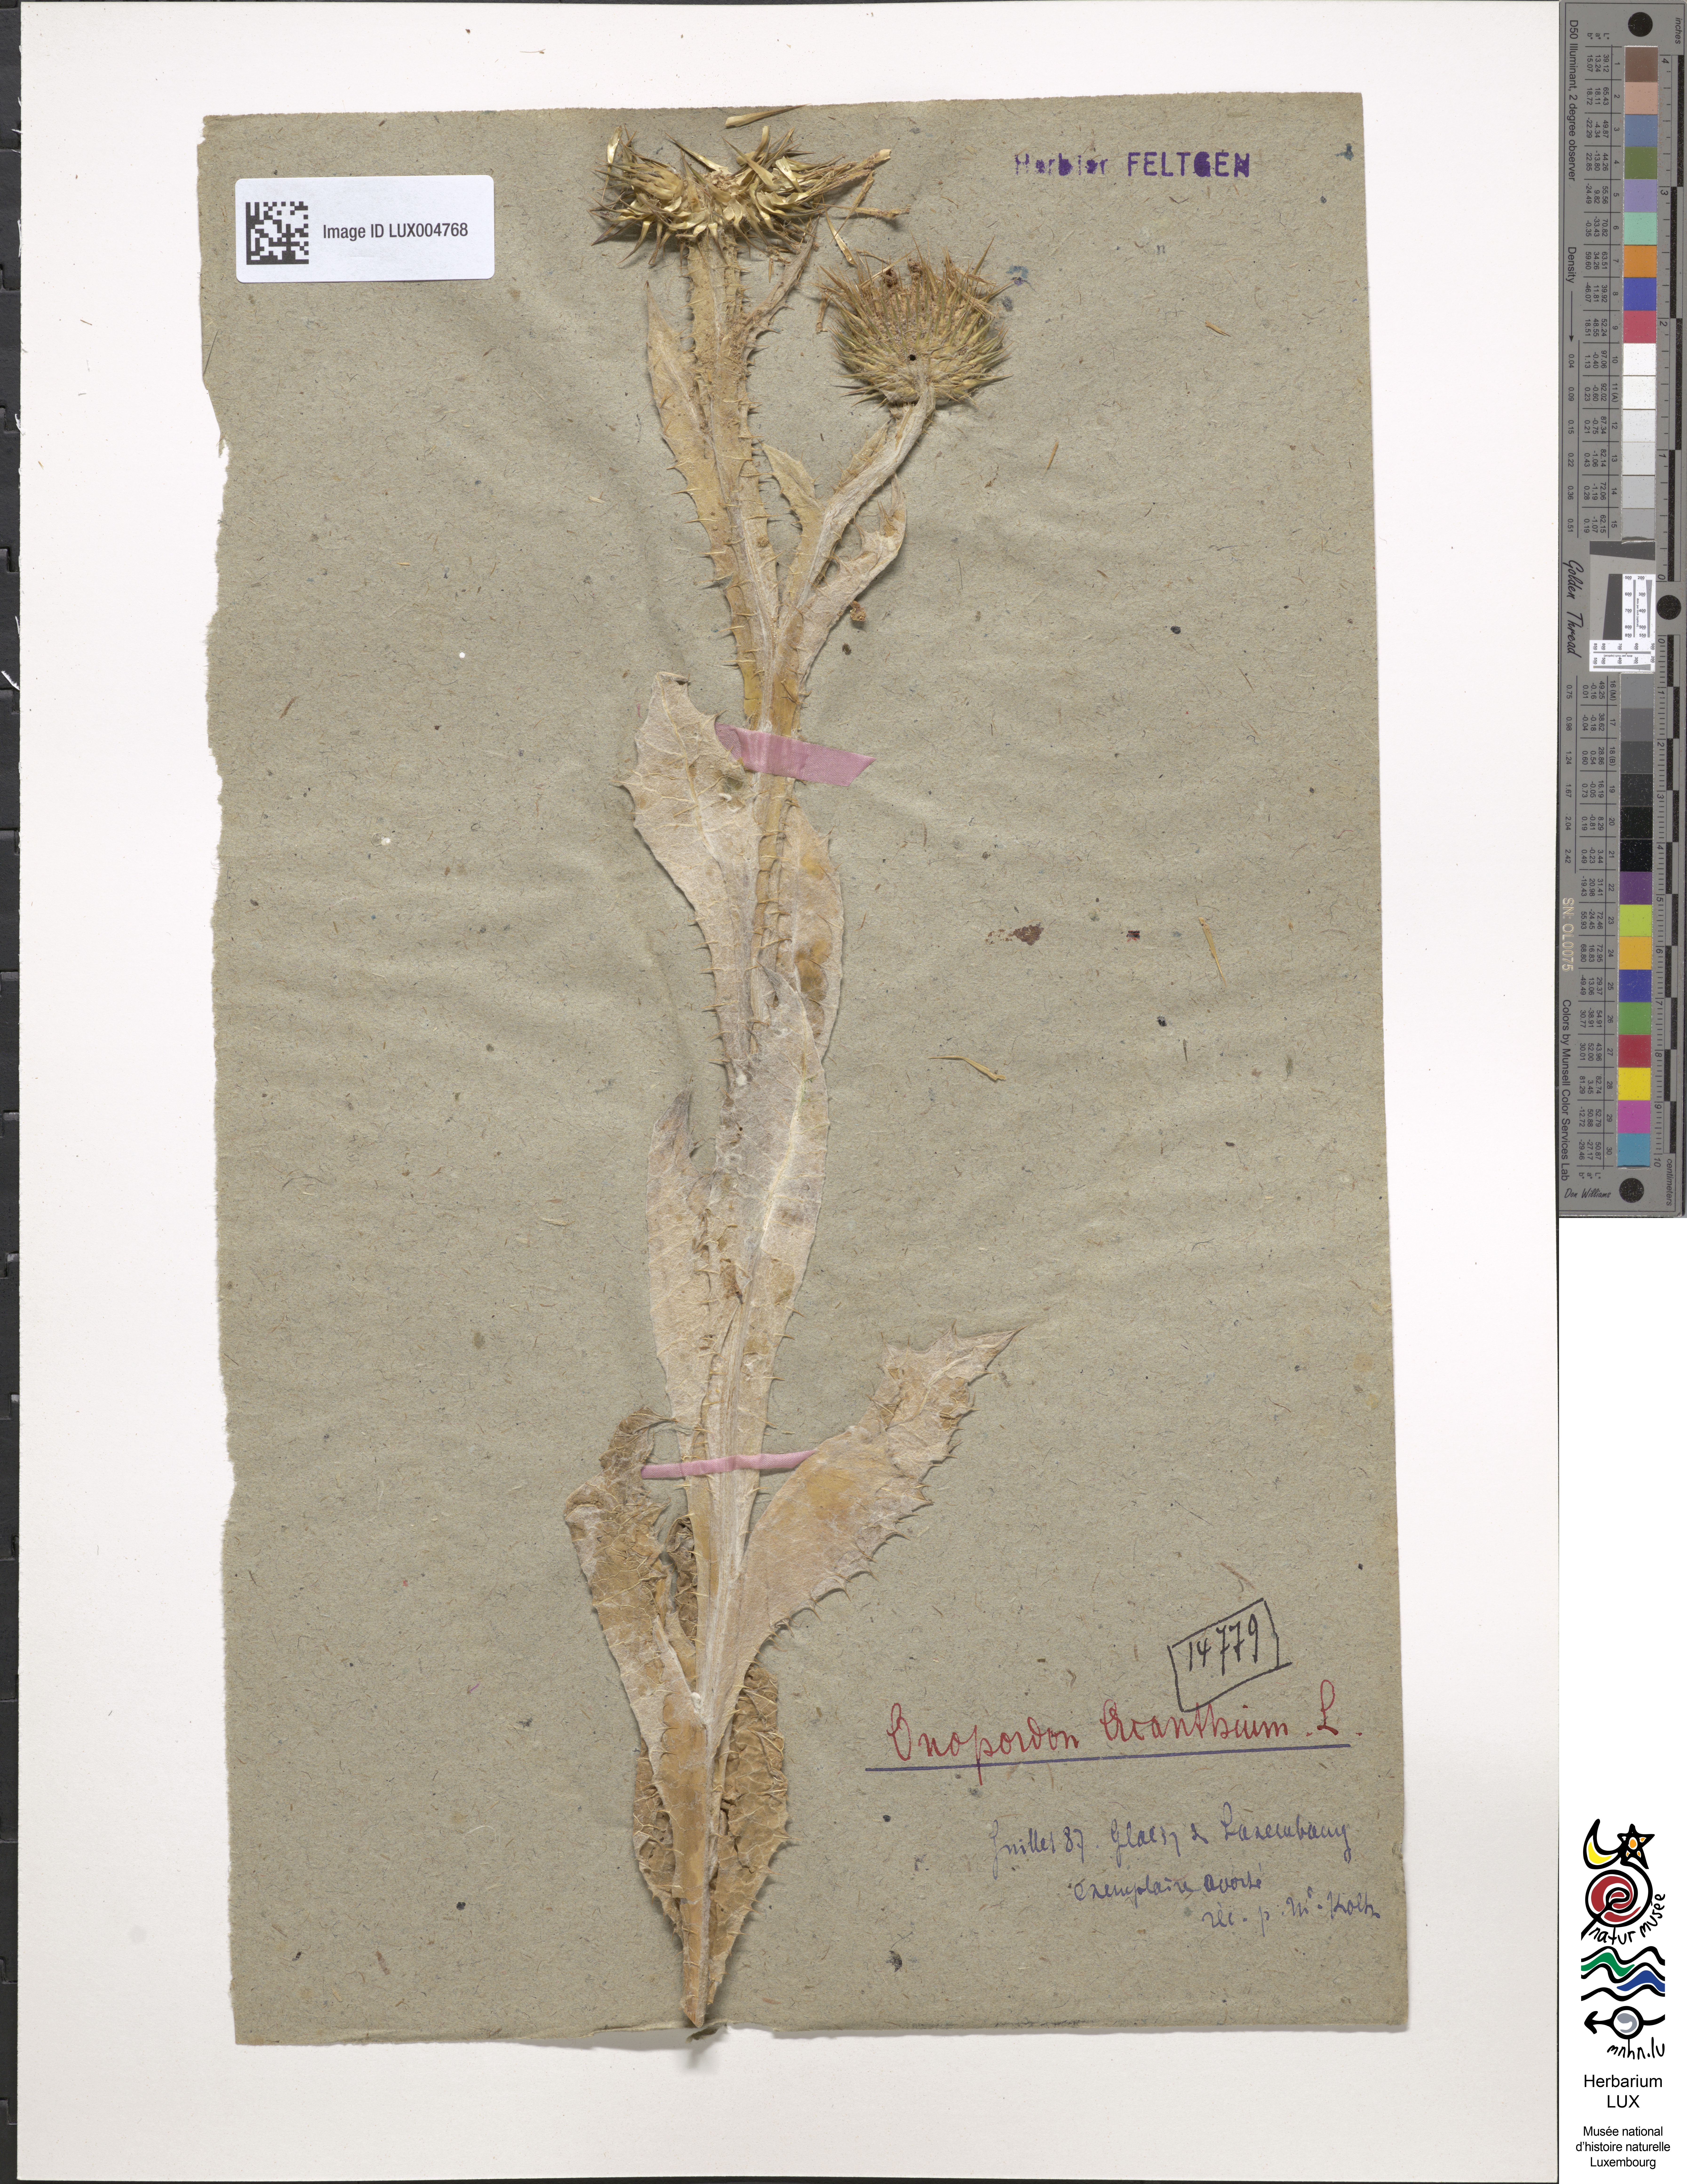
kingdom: Plantae
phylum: Tracheophyta
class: Magnoliopsida
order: Asterales
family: Asteraceae
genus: Onopordum
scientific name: Onopordum acanthium
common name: Scotch thistle
